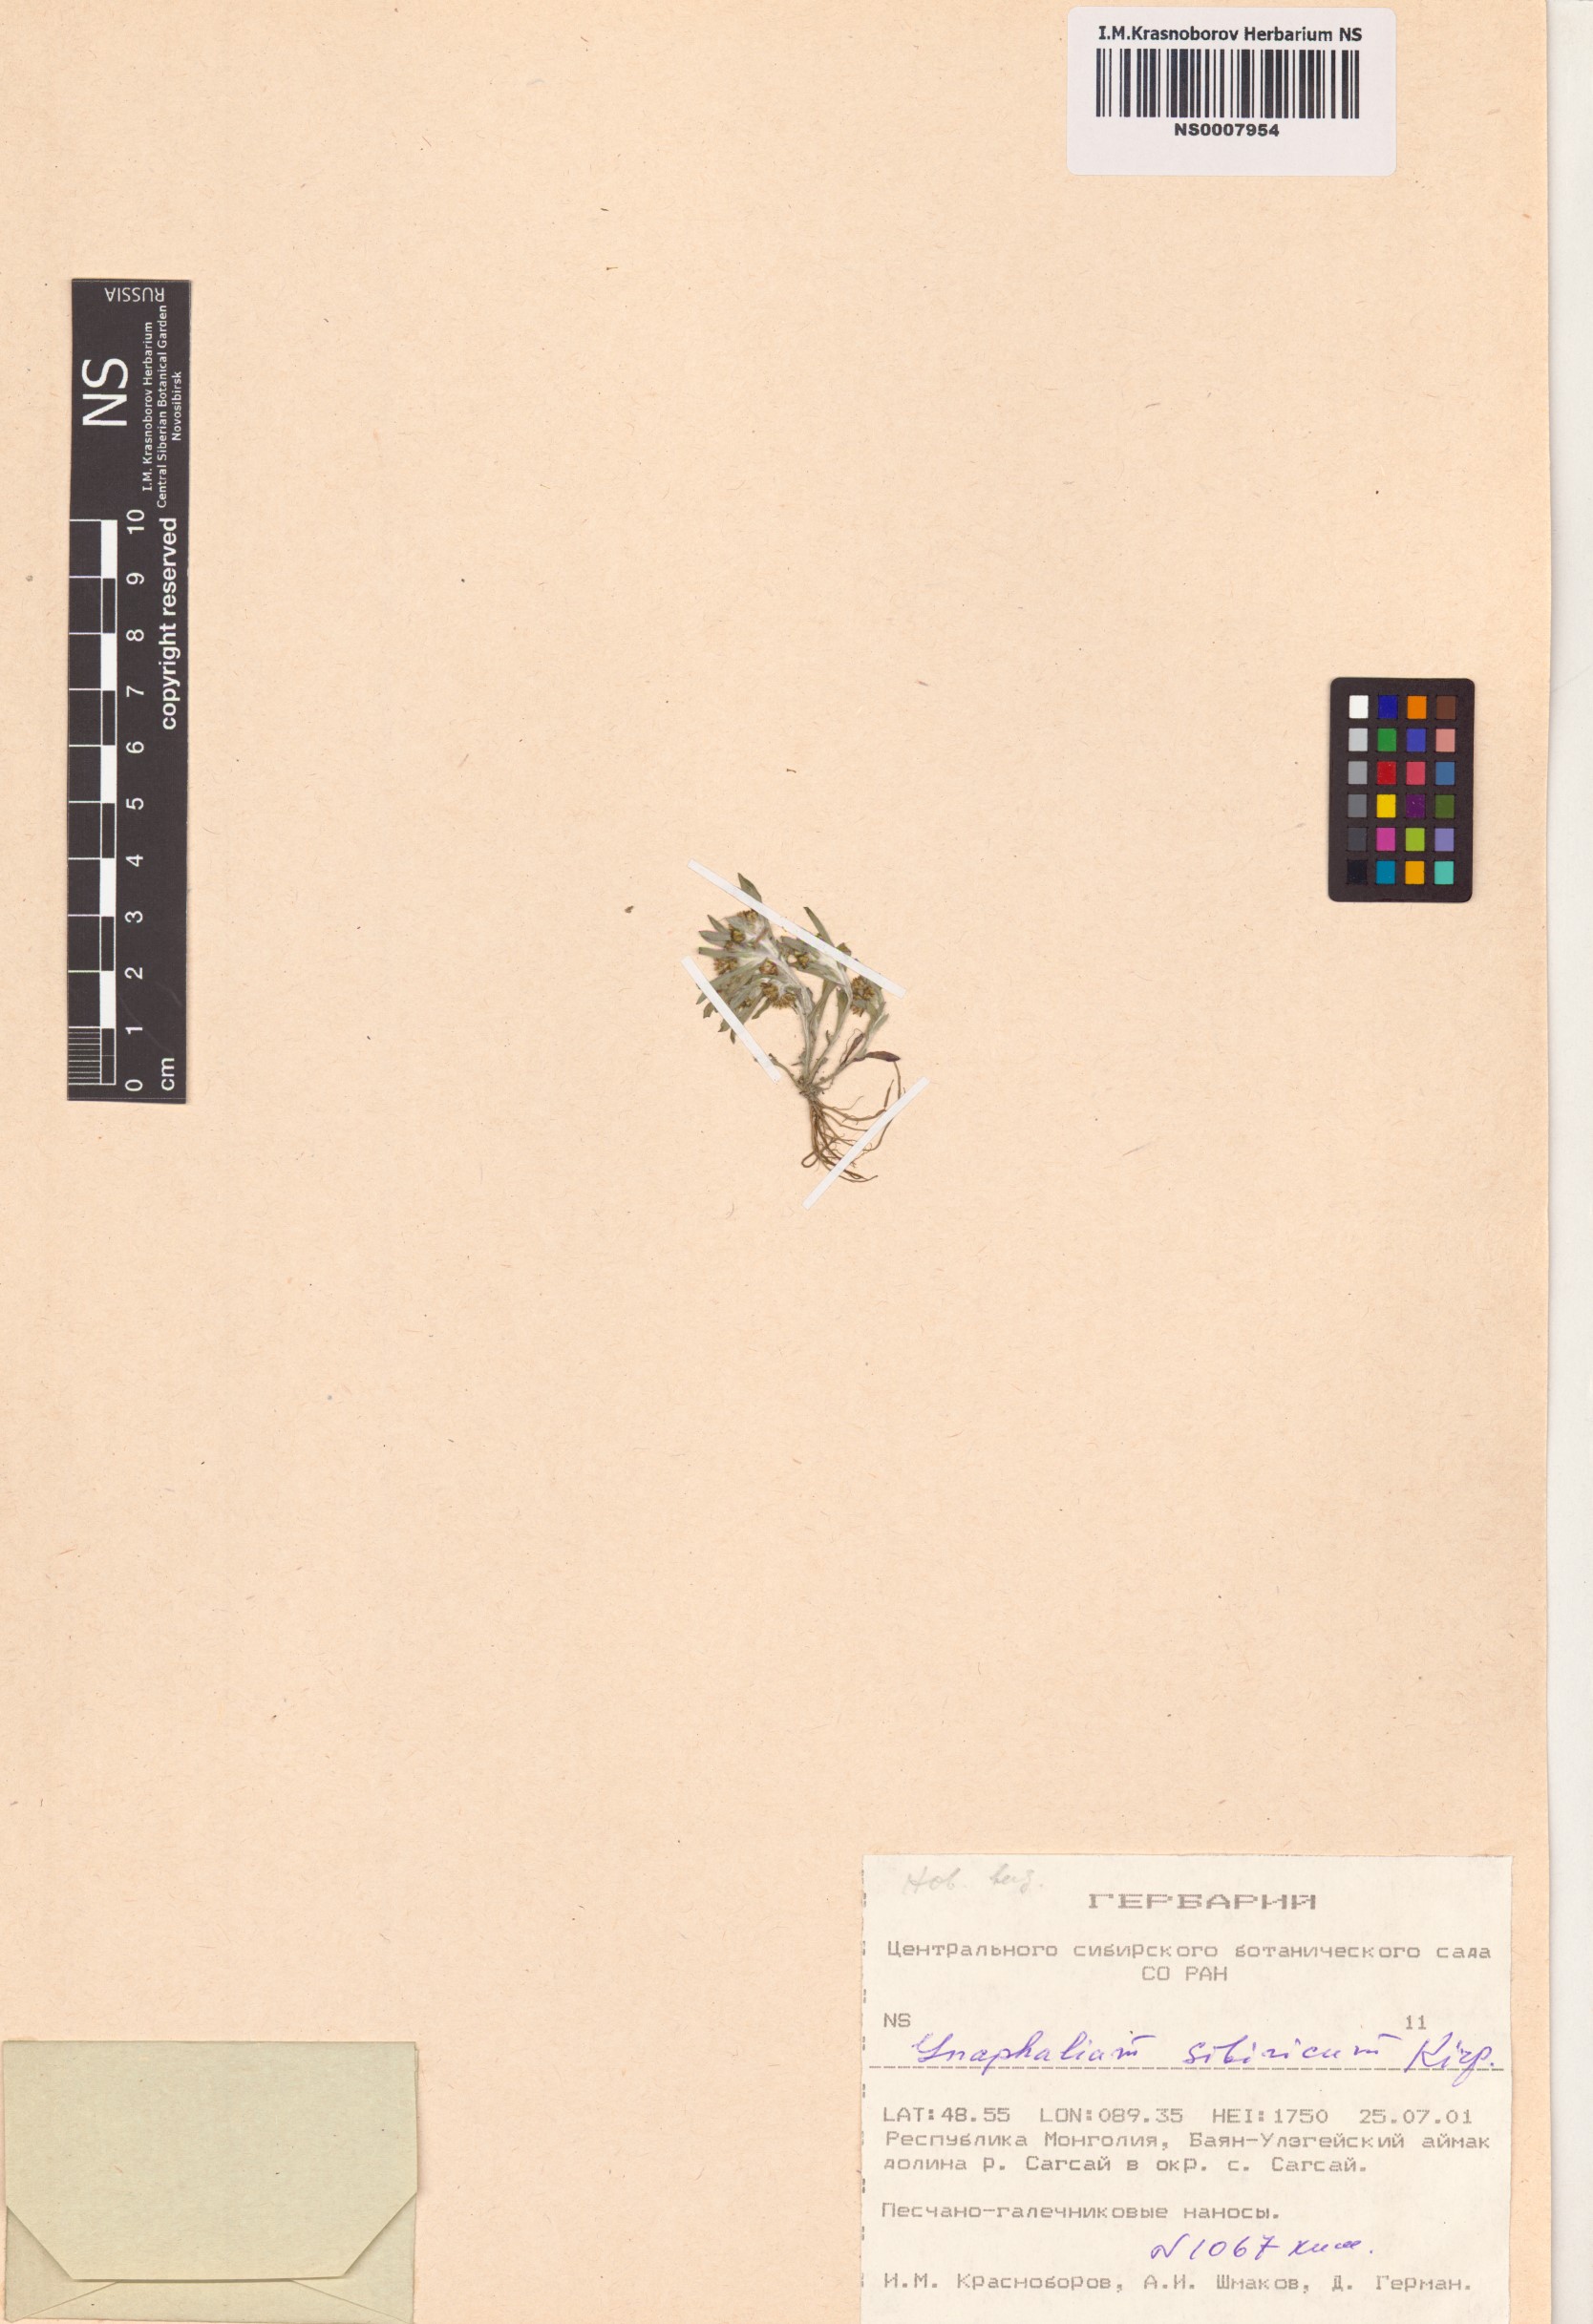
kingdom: Plantae
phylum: Tracheophyta
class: Magnoliopsida
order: Asterales
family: Asteraceae
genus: Gnaphalium
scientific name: Gnaphalium pilulare
